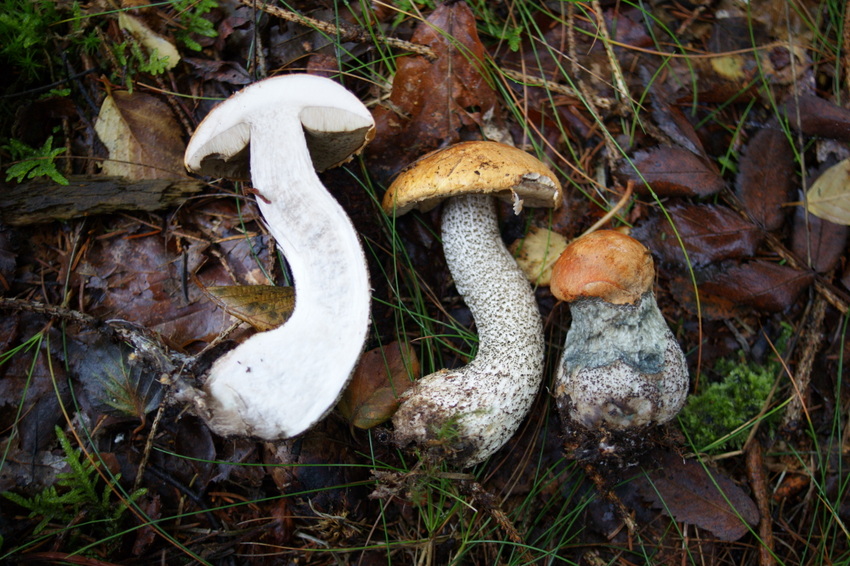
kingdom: Fungi
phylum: Basidiomycota
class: Agaricomycetes
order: Boletales
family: Boletaceae
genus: Leccinum
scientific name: Leccinum versipelle
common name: orange skælrørhat
